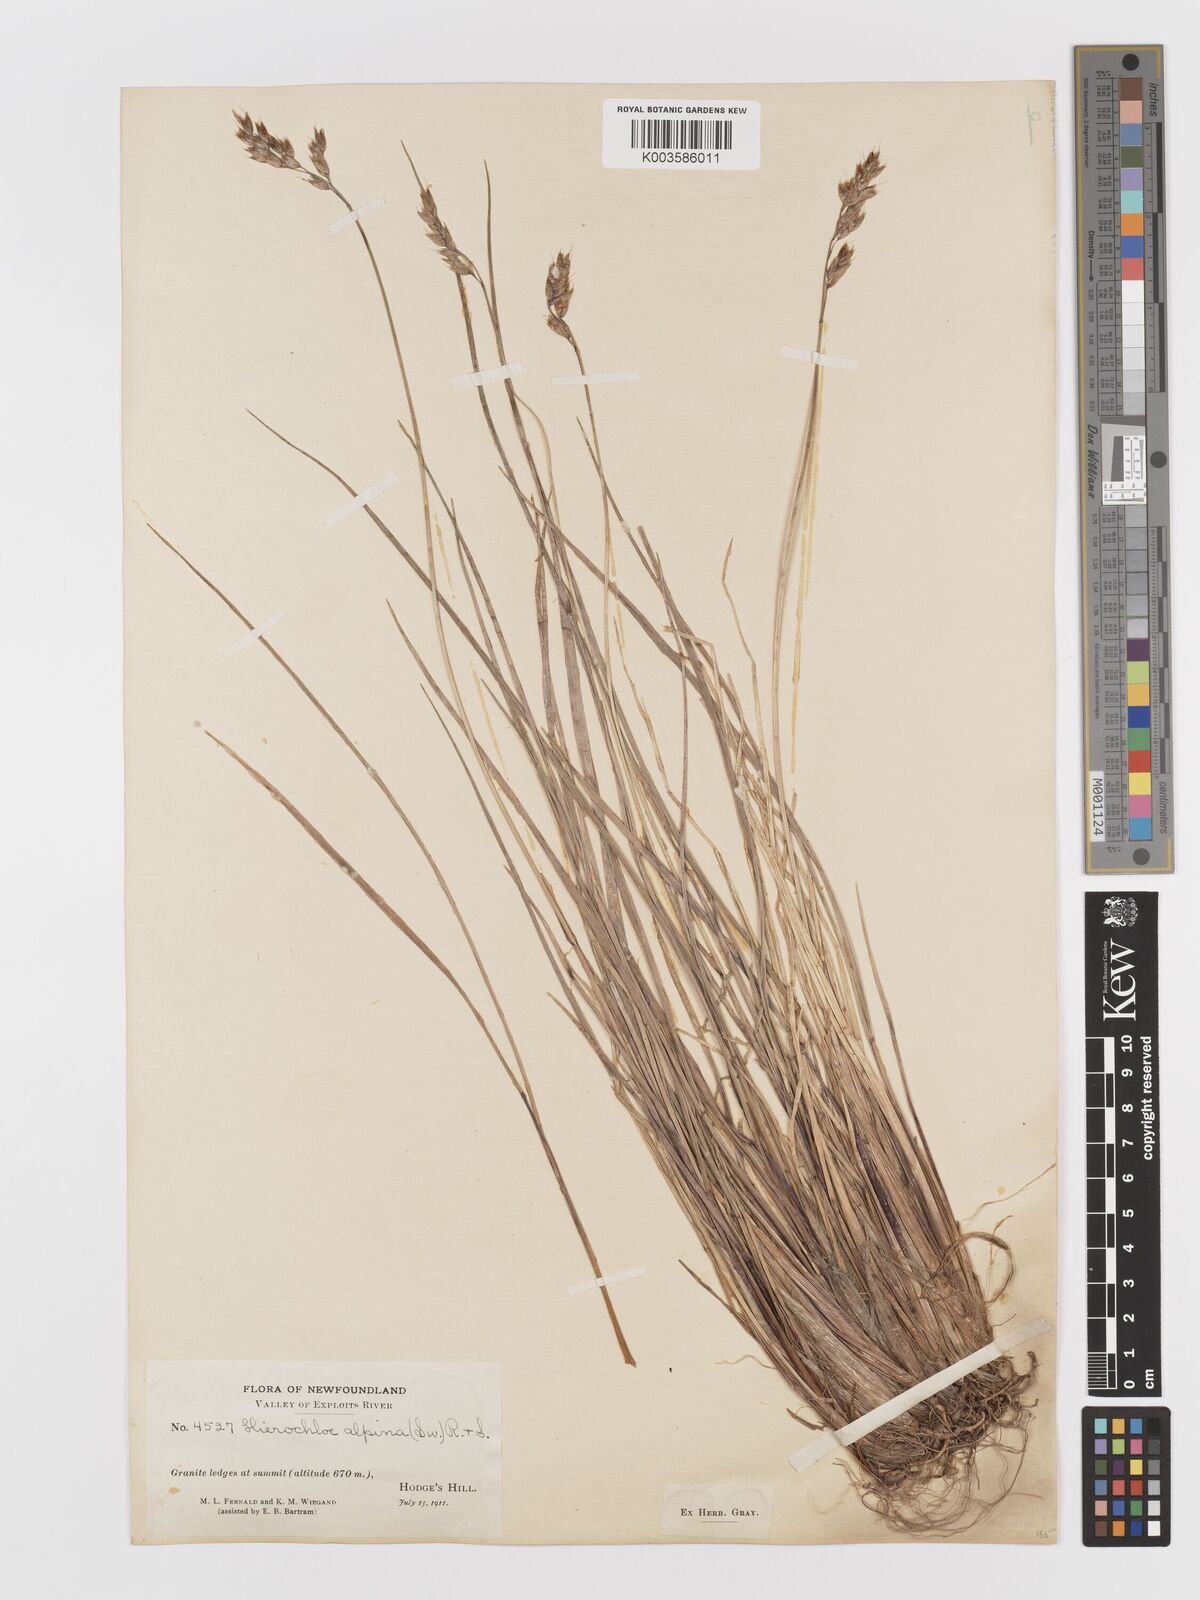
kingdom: Plantae
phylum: Tracheophyta
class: Liliopsida
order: Poales
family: Poaceae
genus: Anthoxanthum
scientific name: Anthoxanthum monticola
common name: Alpine sweetgrass
